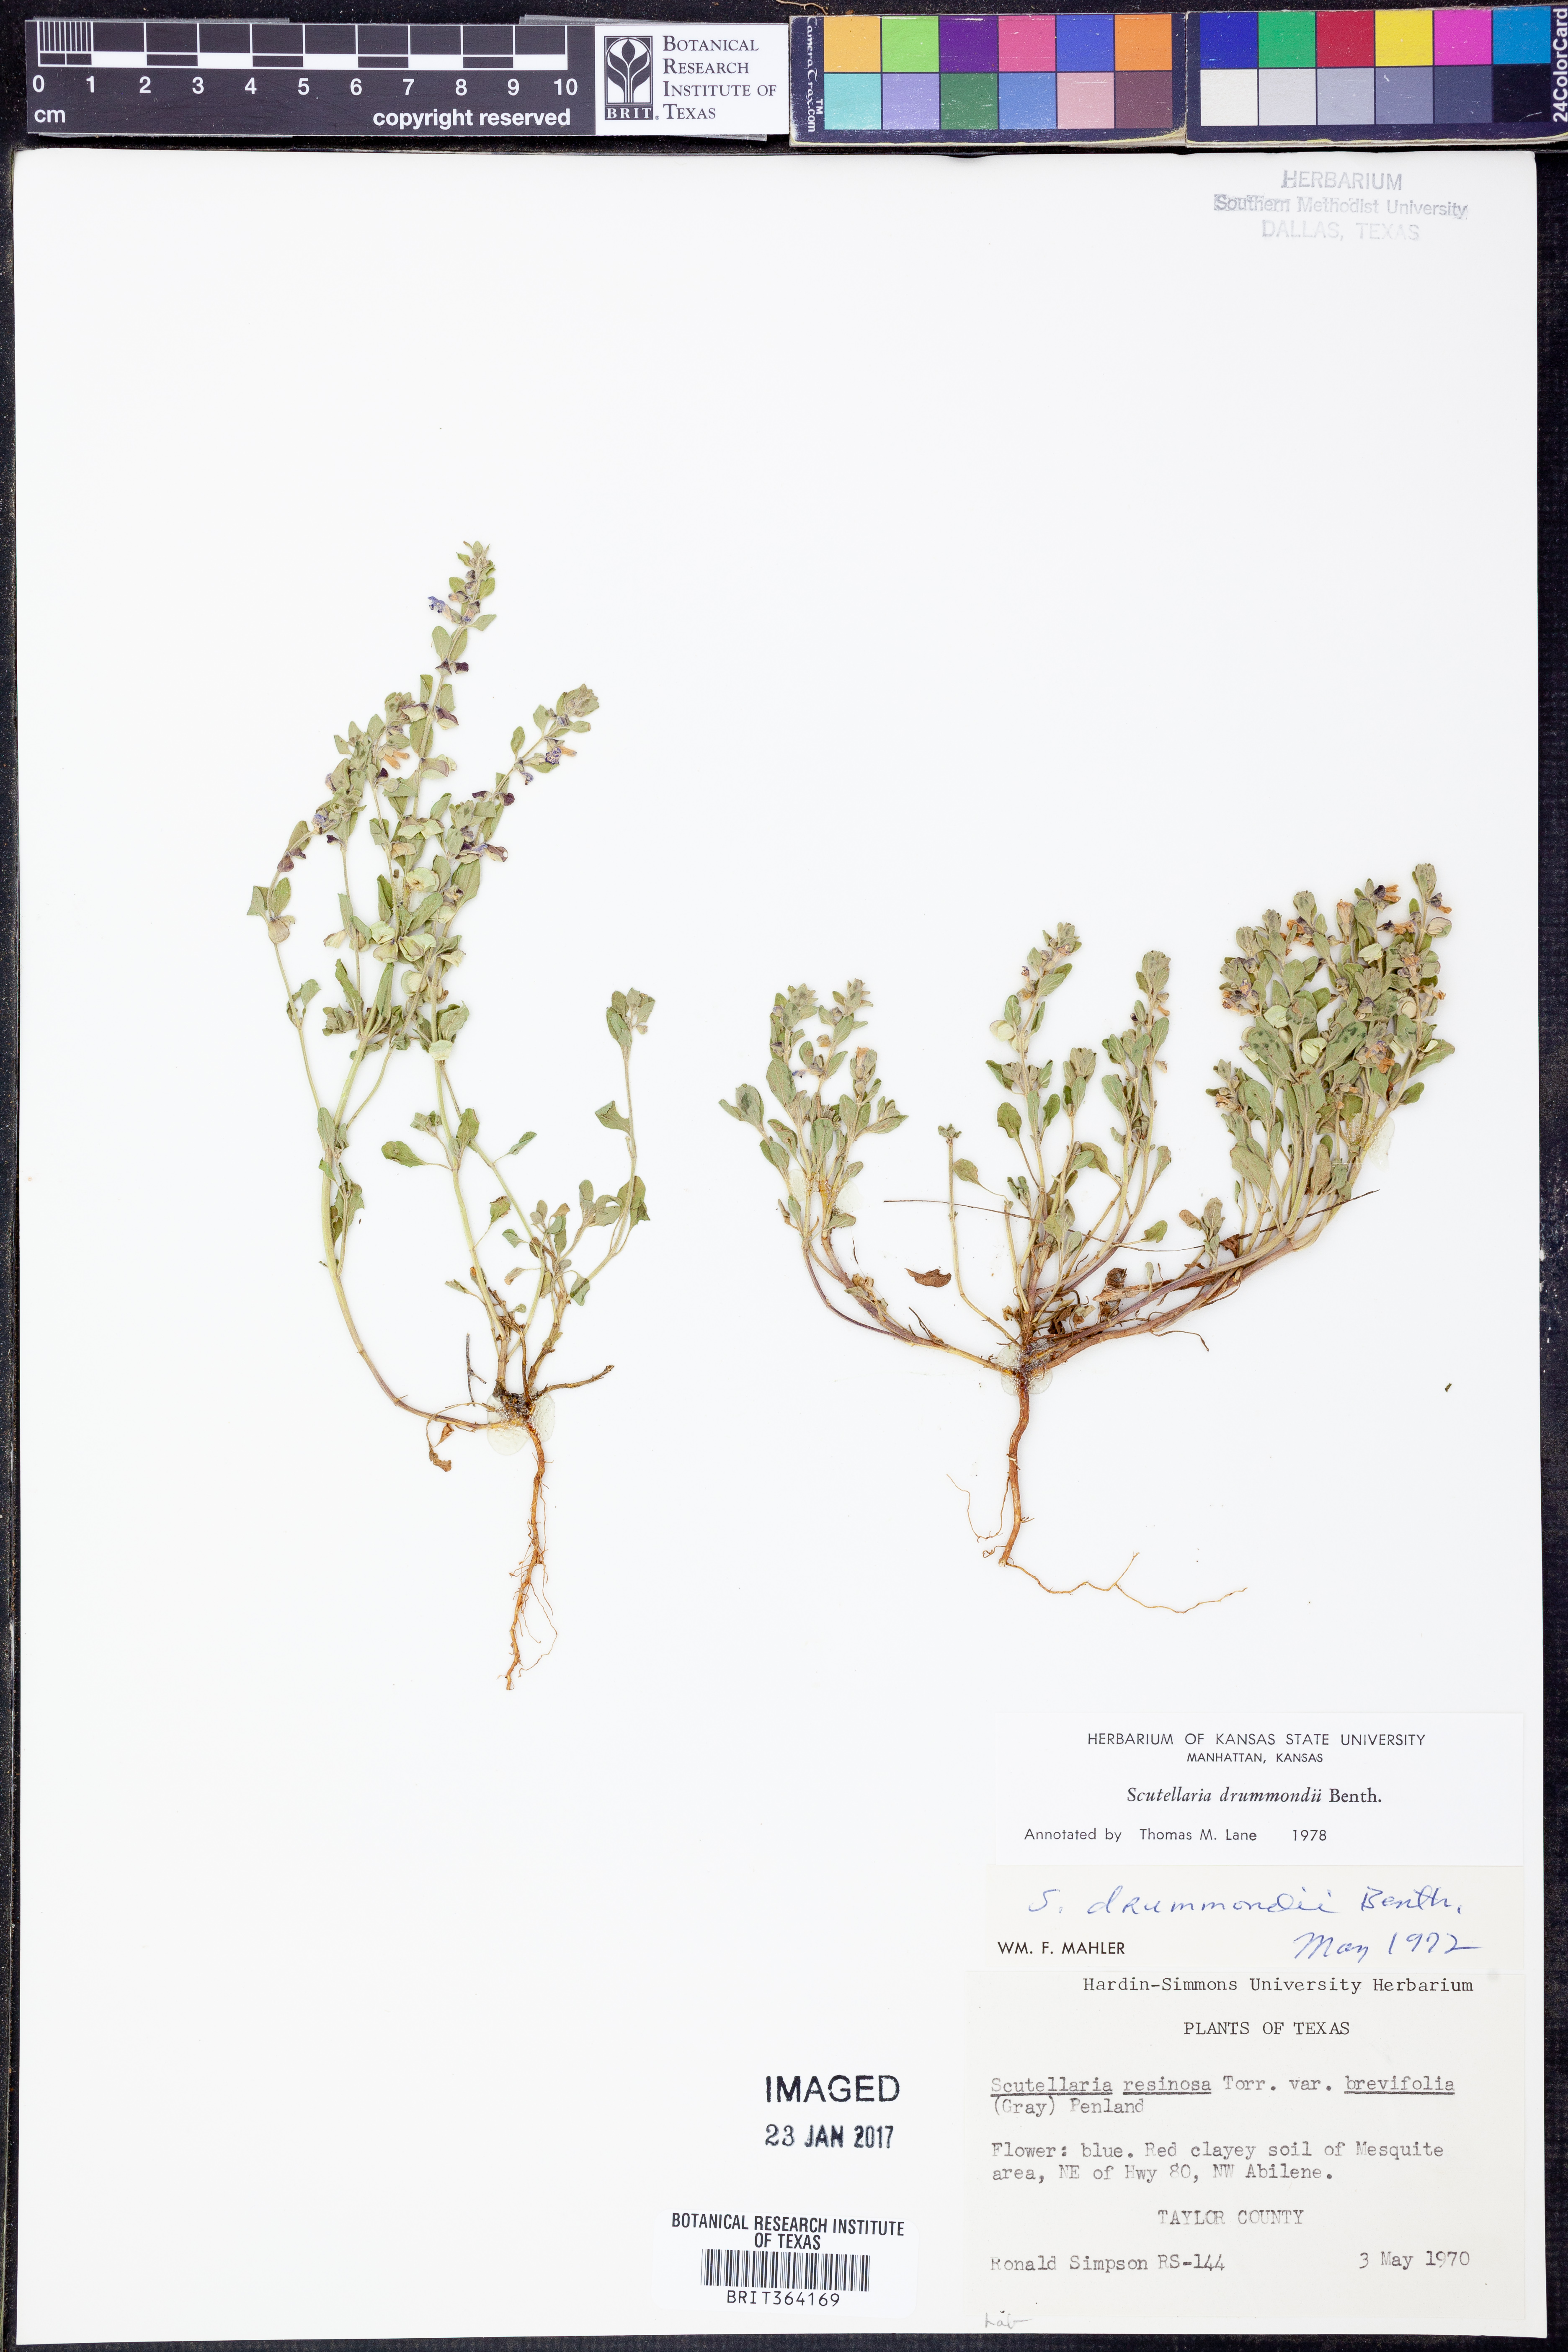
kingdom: Plantae
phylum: Tracheophyta
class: Magnoliopsida
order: Lamiales
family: Lamiaceae
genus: Scutellaria
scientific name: Scutellaria drummondii
